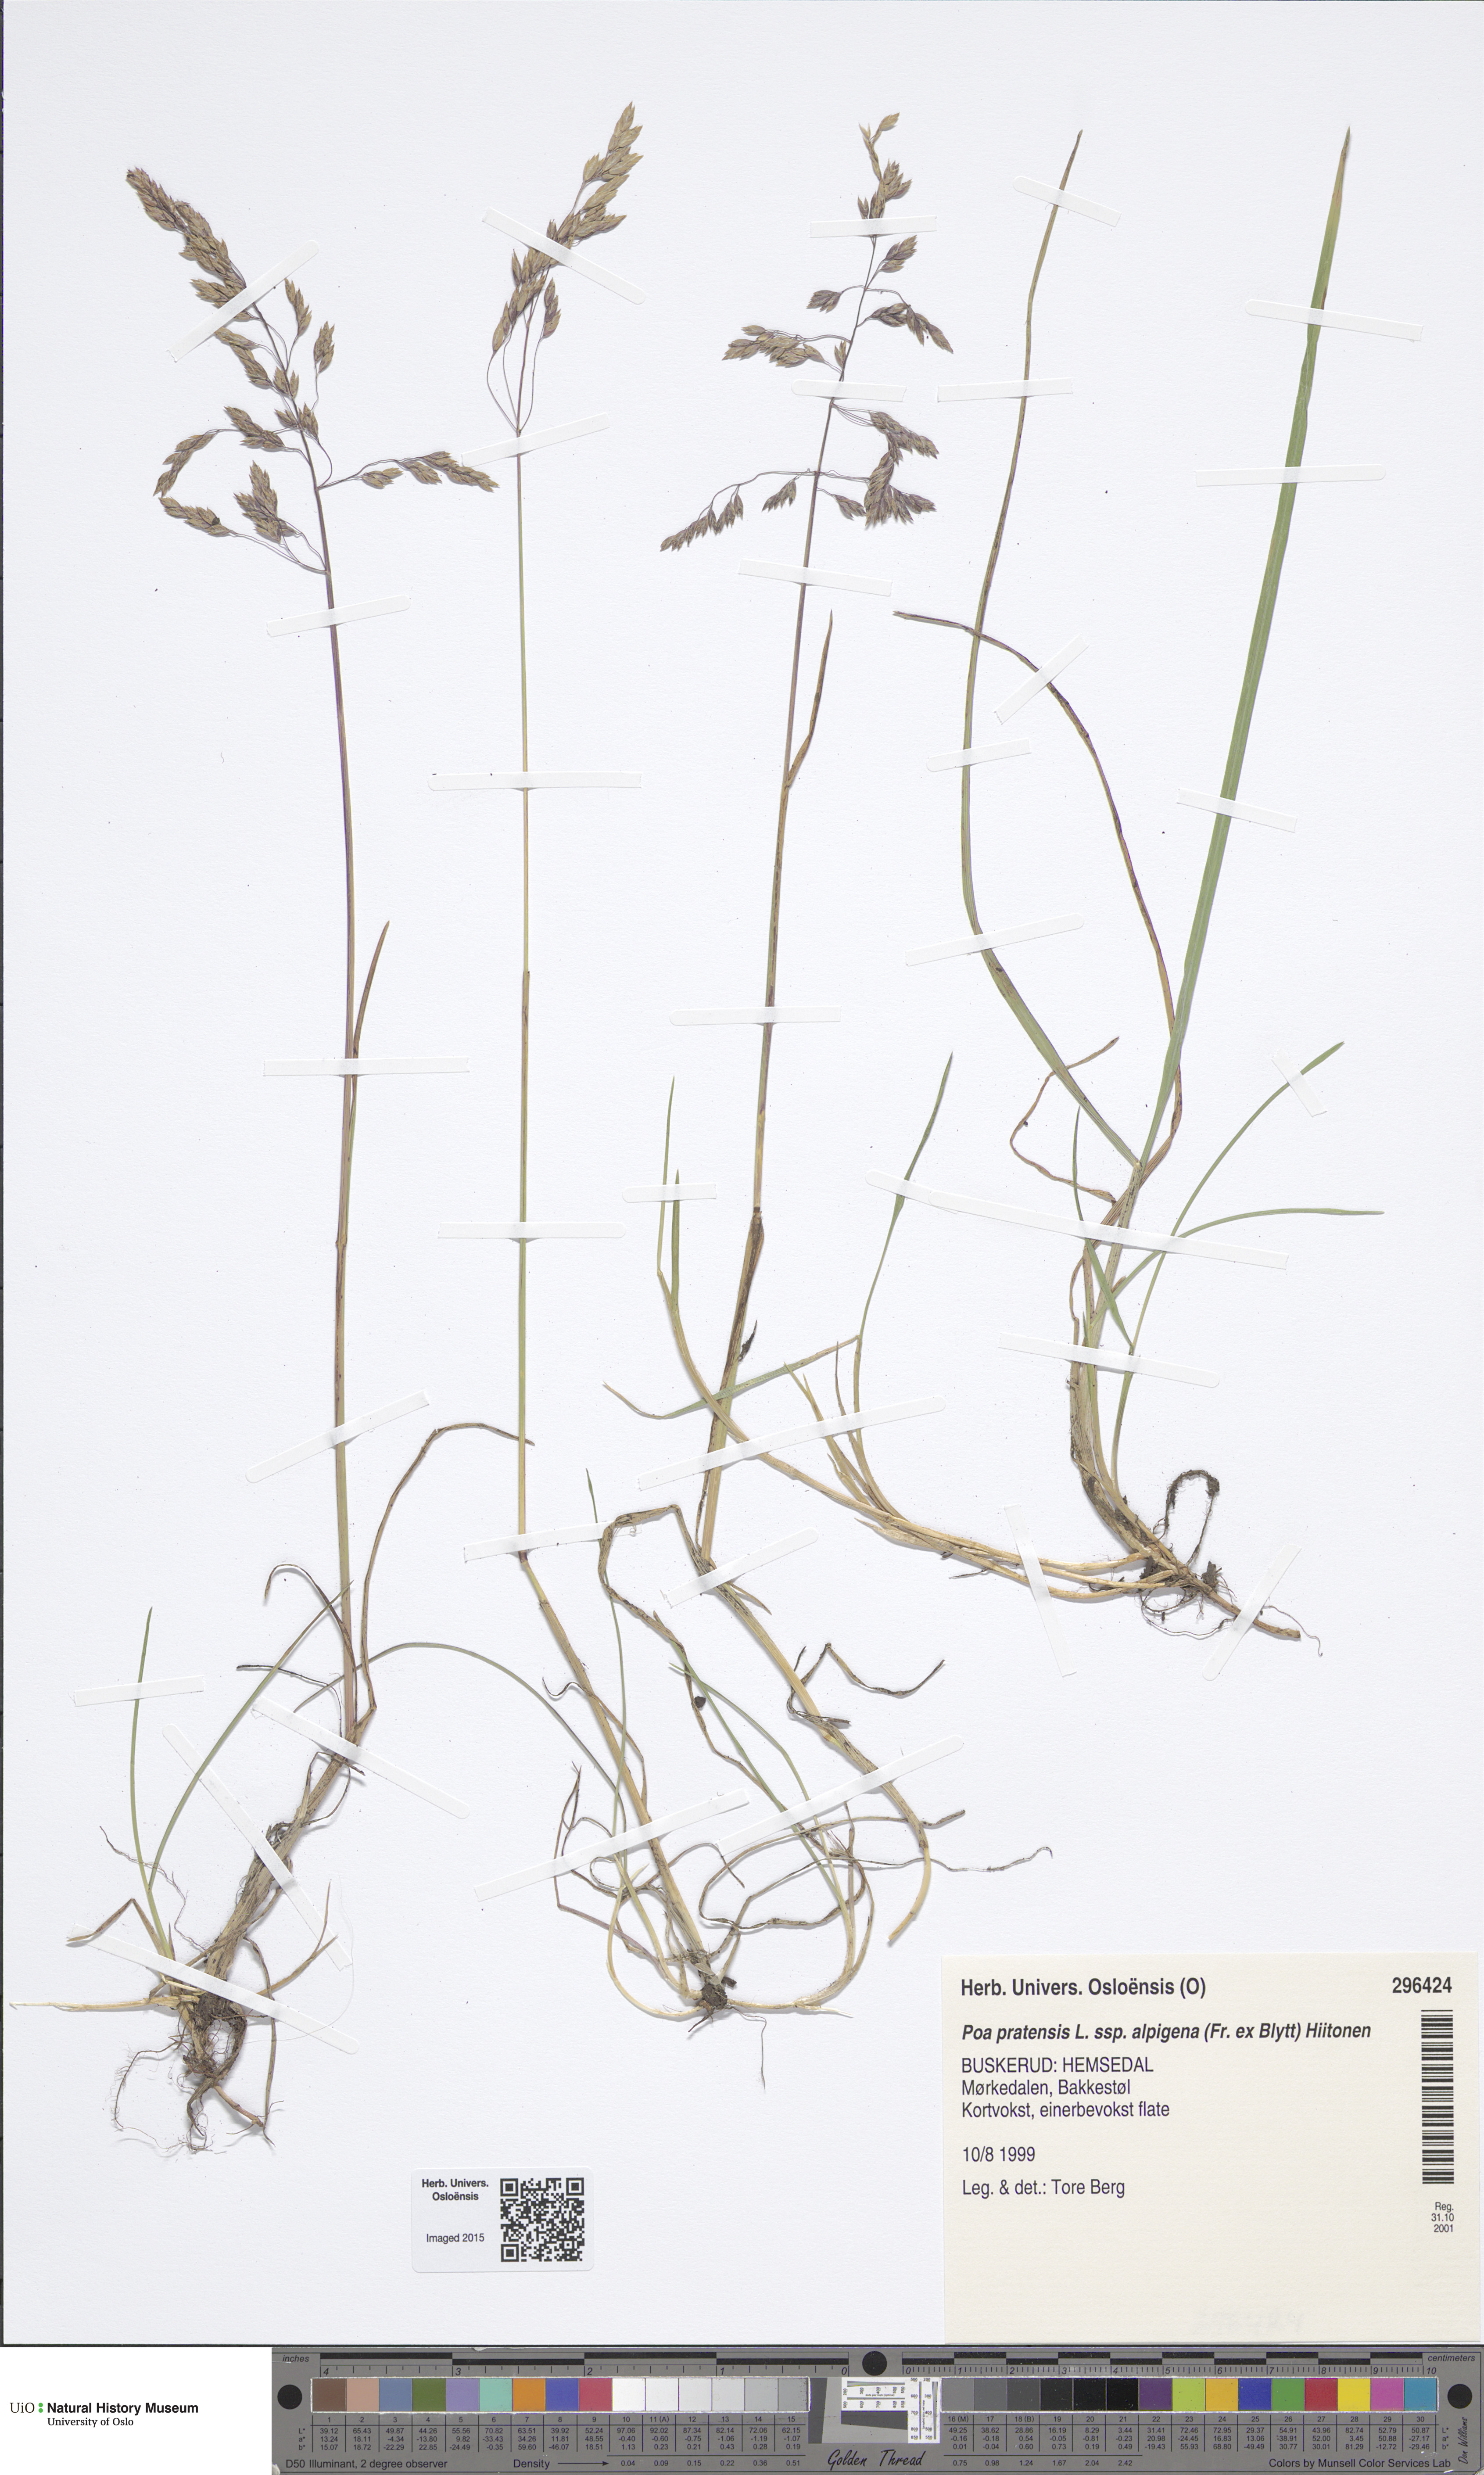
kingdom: Plantae
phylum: Tracheophyta
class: Liliopsida
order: Poales
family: Poaceae
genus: Poa
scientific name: Poa alpigena
